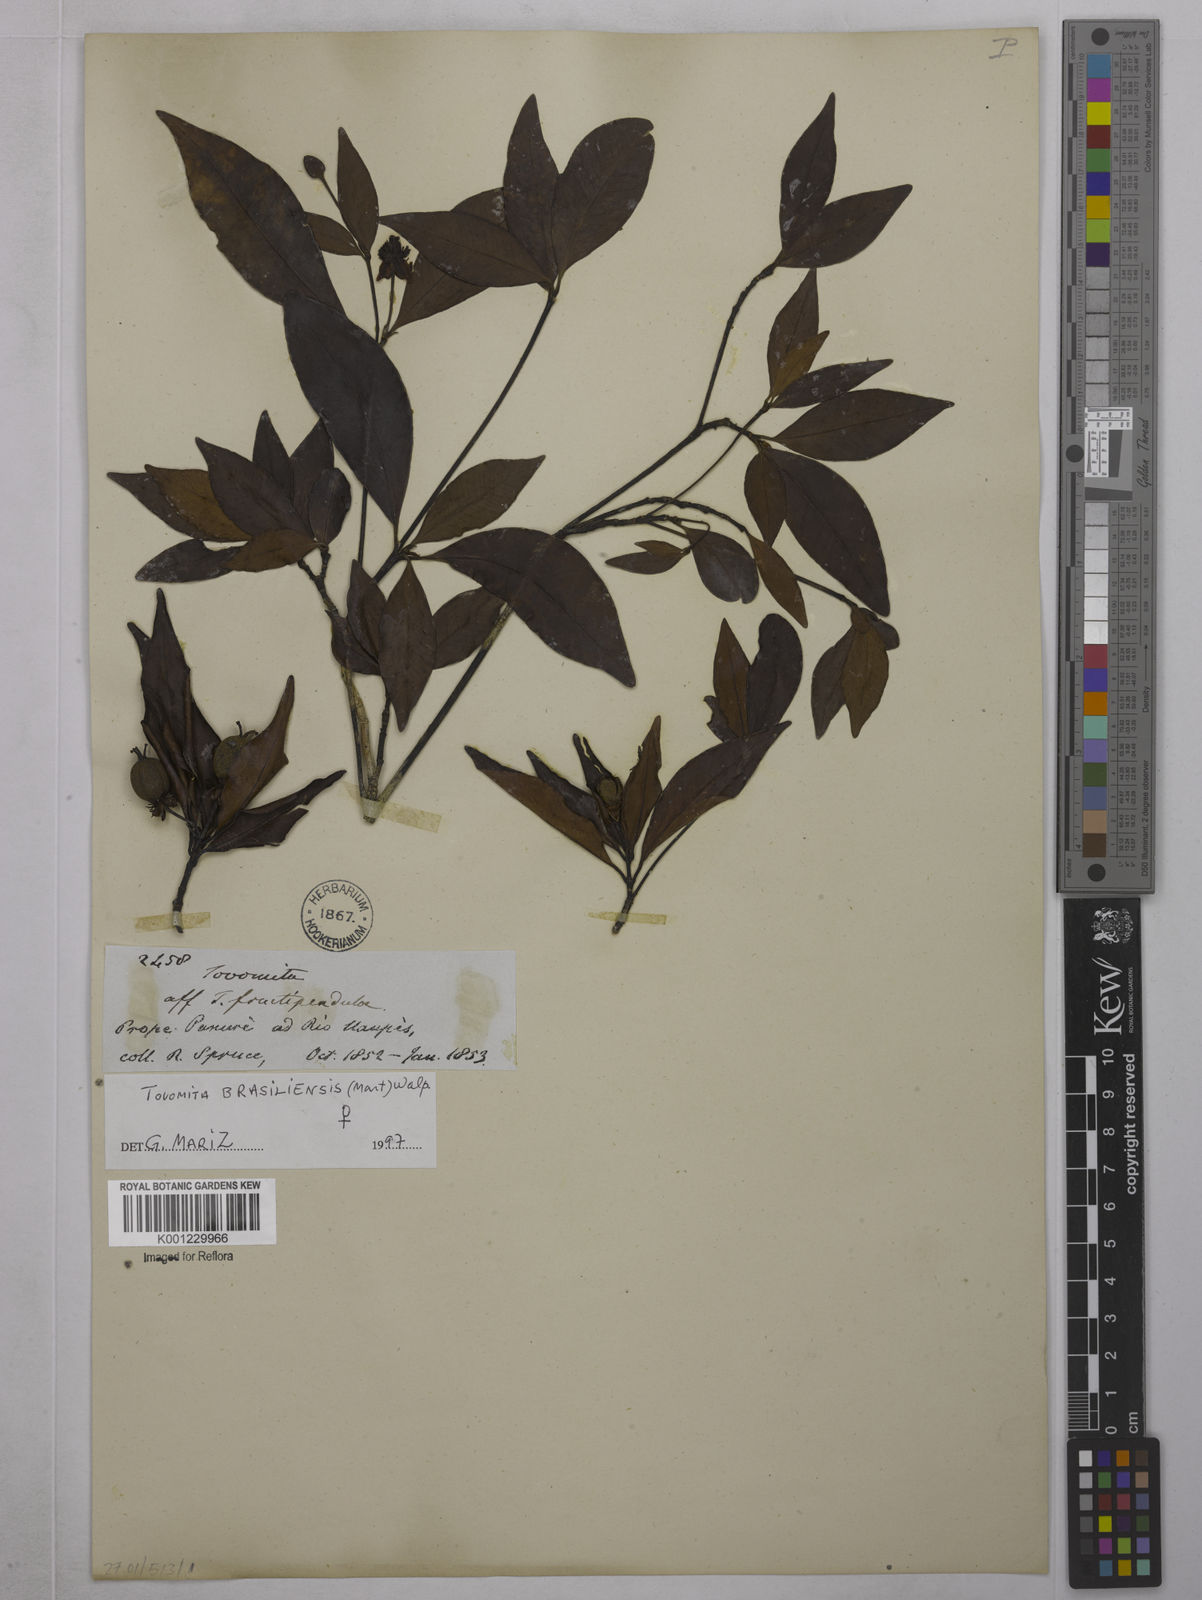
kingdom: Plantae
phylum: Tracheophyta
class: Magnoliopsida
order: Malpighiales
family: Clusiaceae
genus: Tovomita
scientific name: Tovomita
